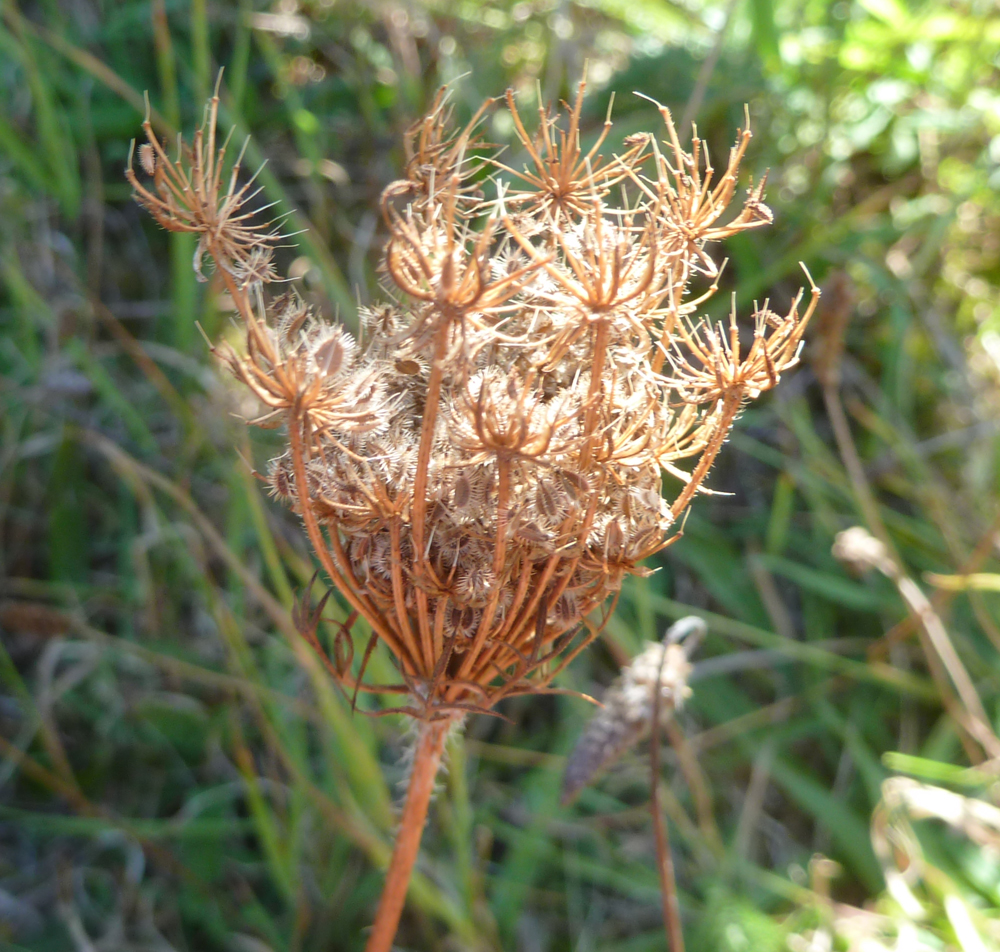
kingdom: Plantae
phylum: Tracheophyta
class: Magnoliopsida
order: Apiales
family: Apiaceae
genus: Daucus
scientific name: Daucus carota
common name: Wild carrot
